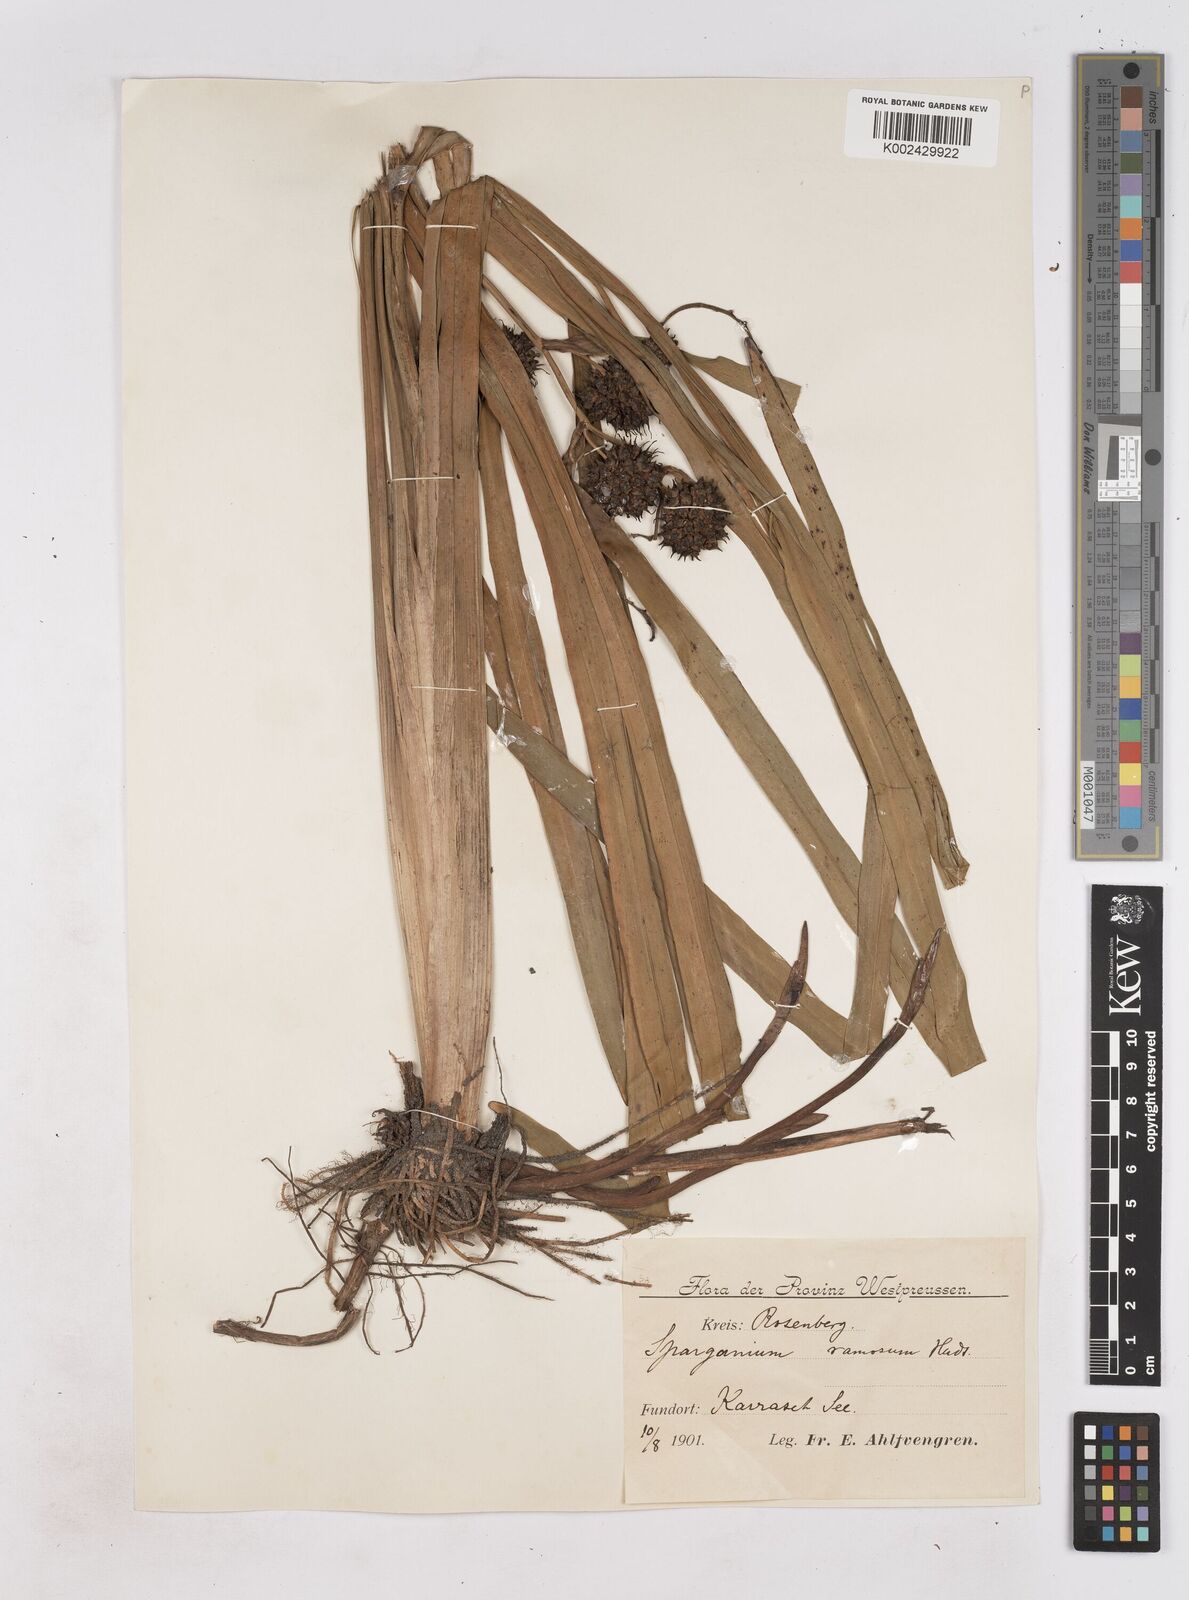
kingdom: Plantae
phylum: Tracheophyta
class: Liliopsida
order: Poales
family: Typhaceae
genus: Sparganium
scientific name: Sparganium erectum
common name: Branched bur-reed
